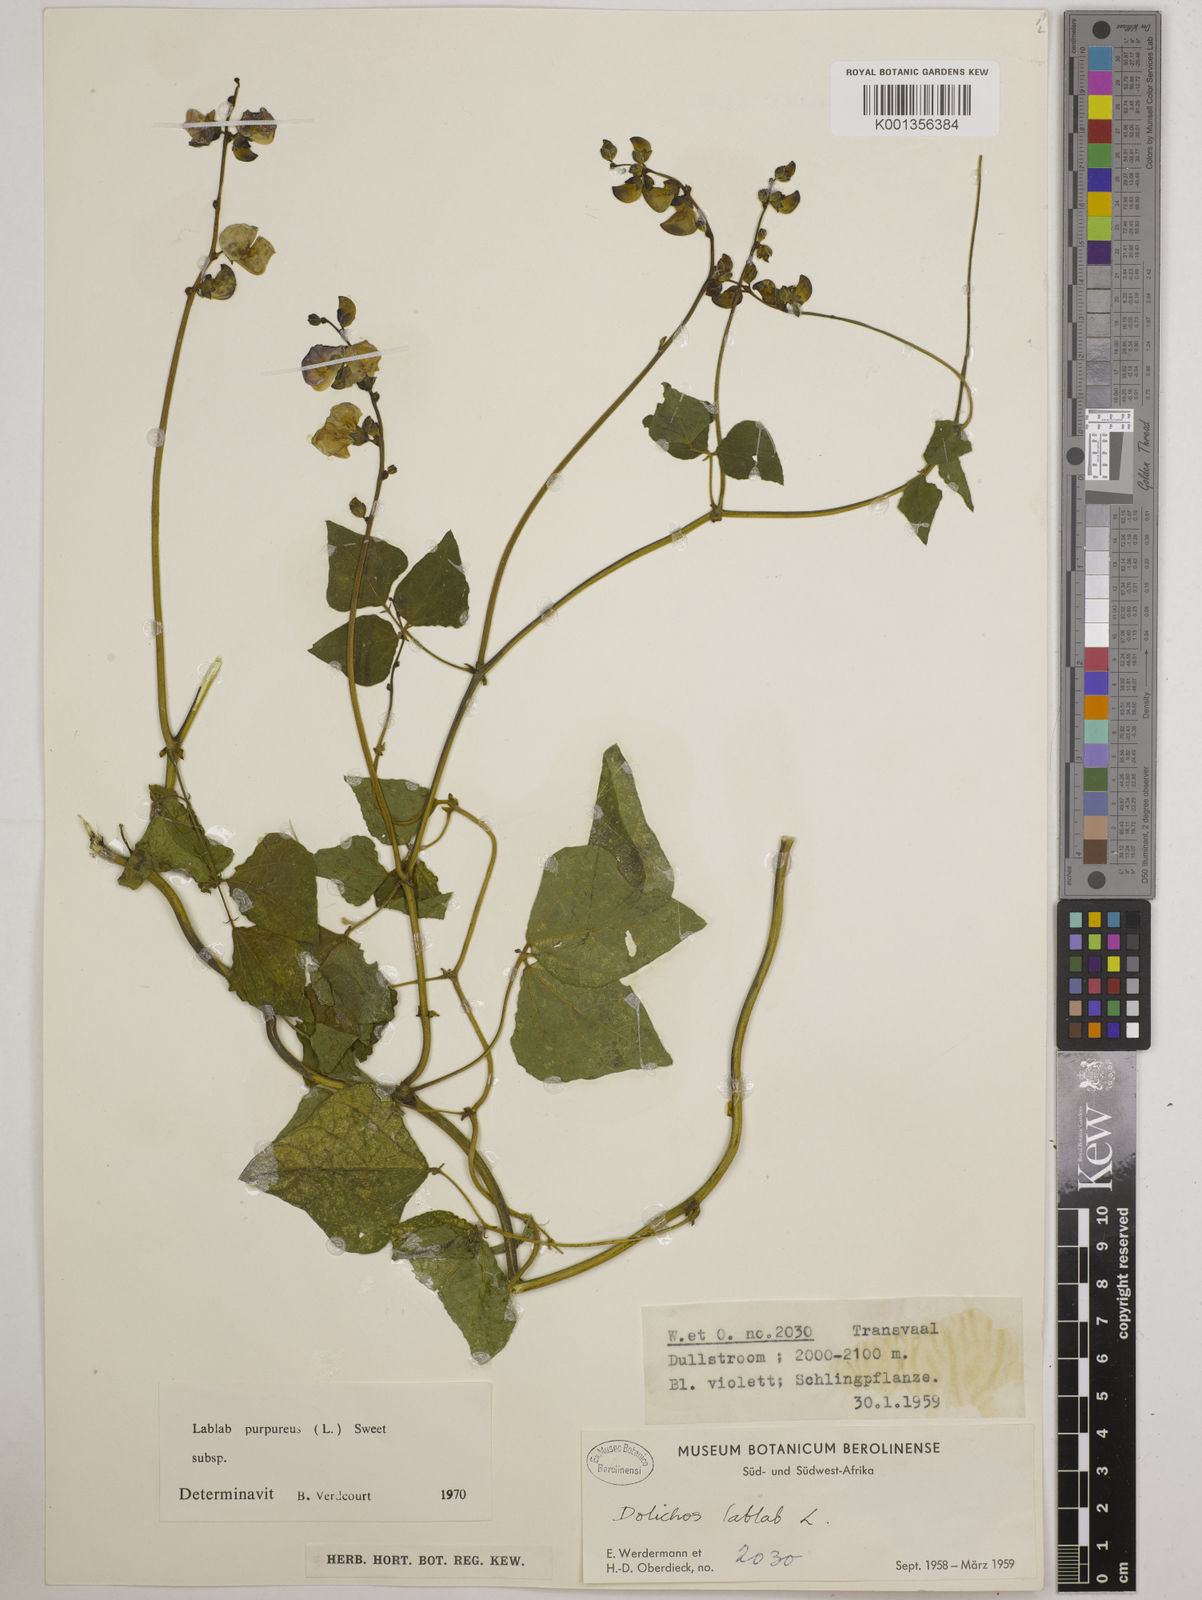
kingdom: Plantae
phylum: Tracheophyta
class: Magnoliopsida
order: Fabales
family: Fabaceae
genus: Lablab
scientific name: Lablab purpureus
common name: Lablab-bean
